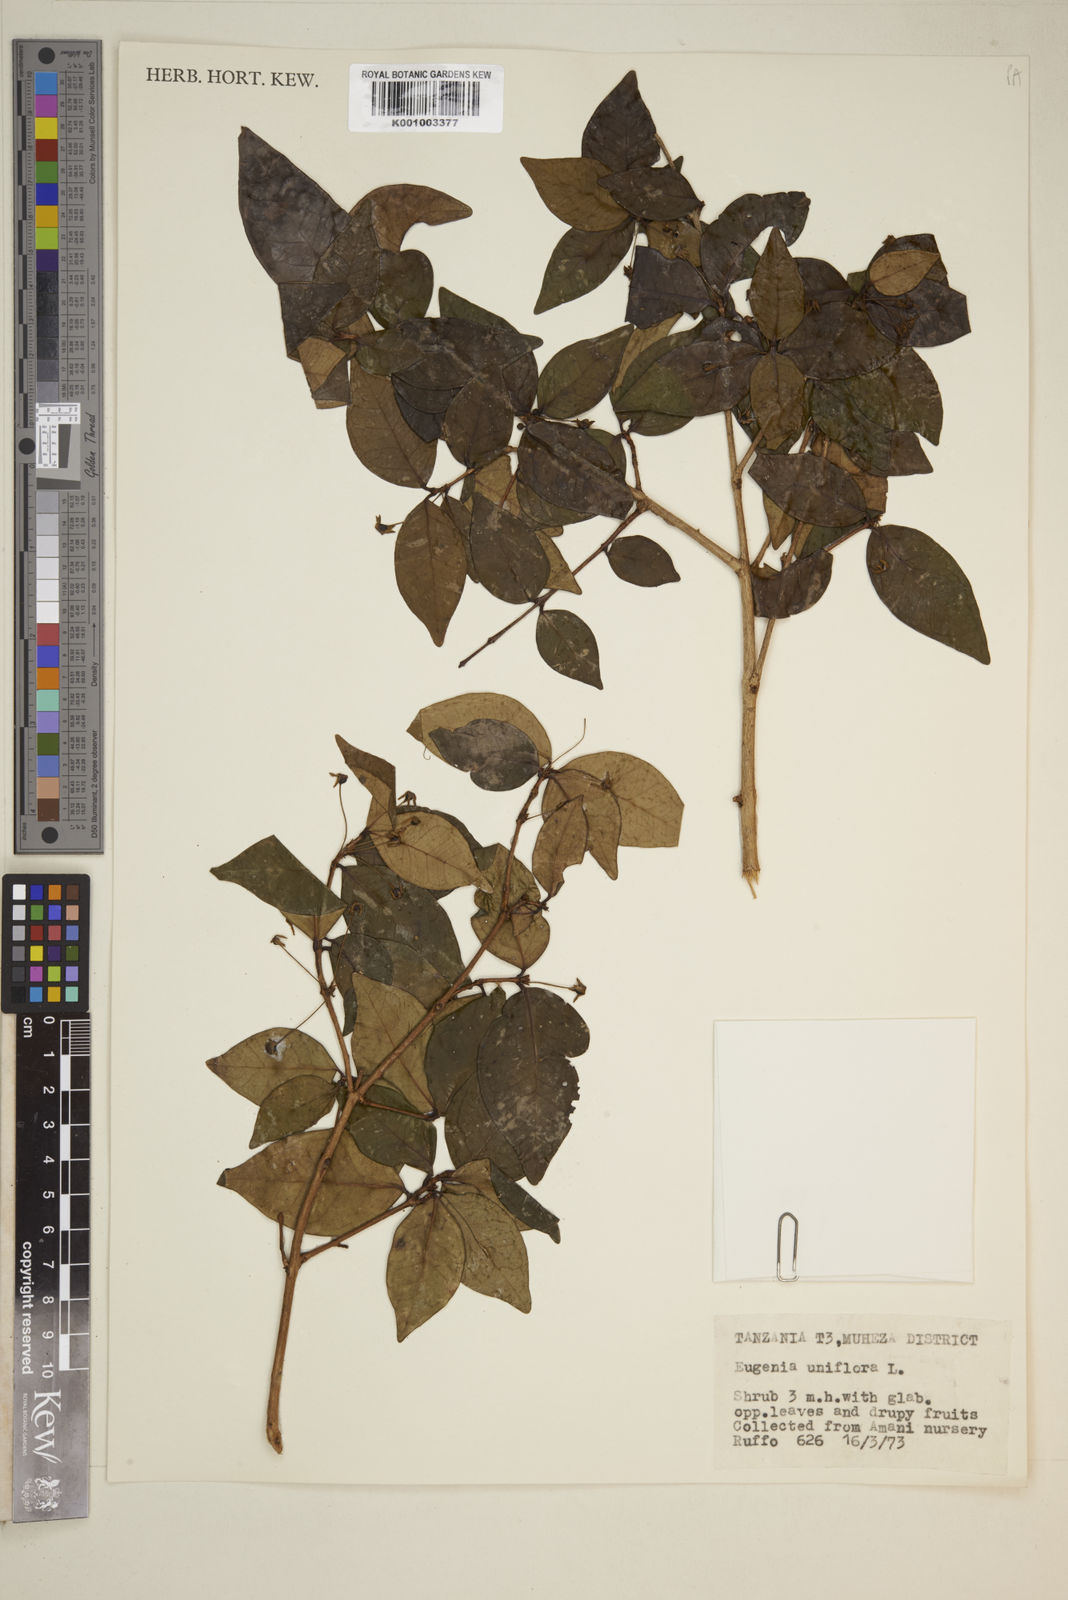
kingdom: Plantae
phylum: Tracheophyta
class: Magnoliopsida
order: Myrtales
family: Myrtaceae
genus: Eugenia
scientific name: Eugenia uniflora
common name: Surinam cherry
